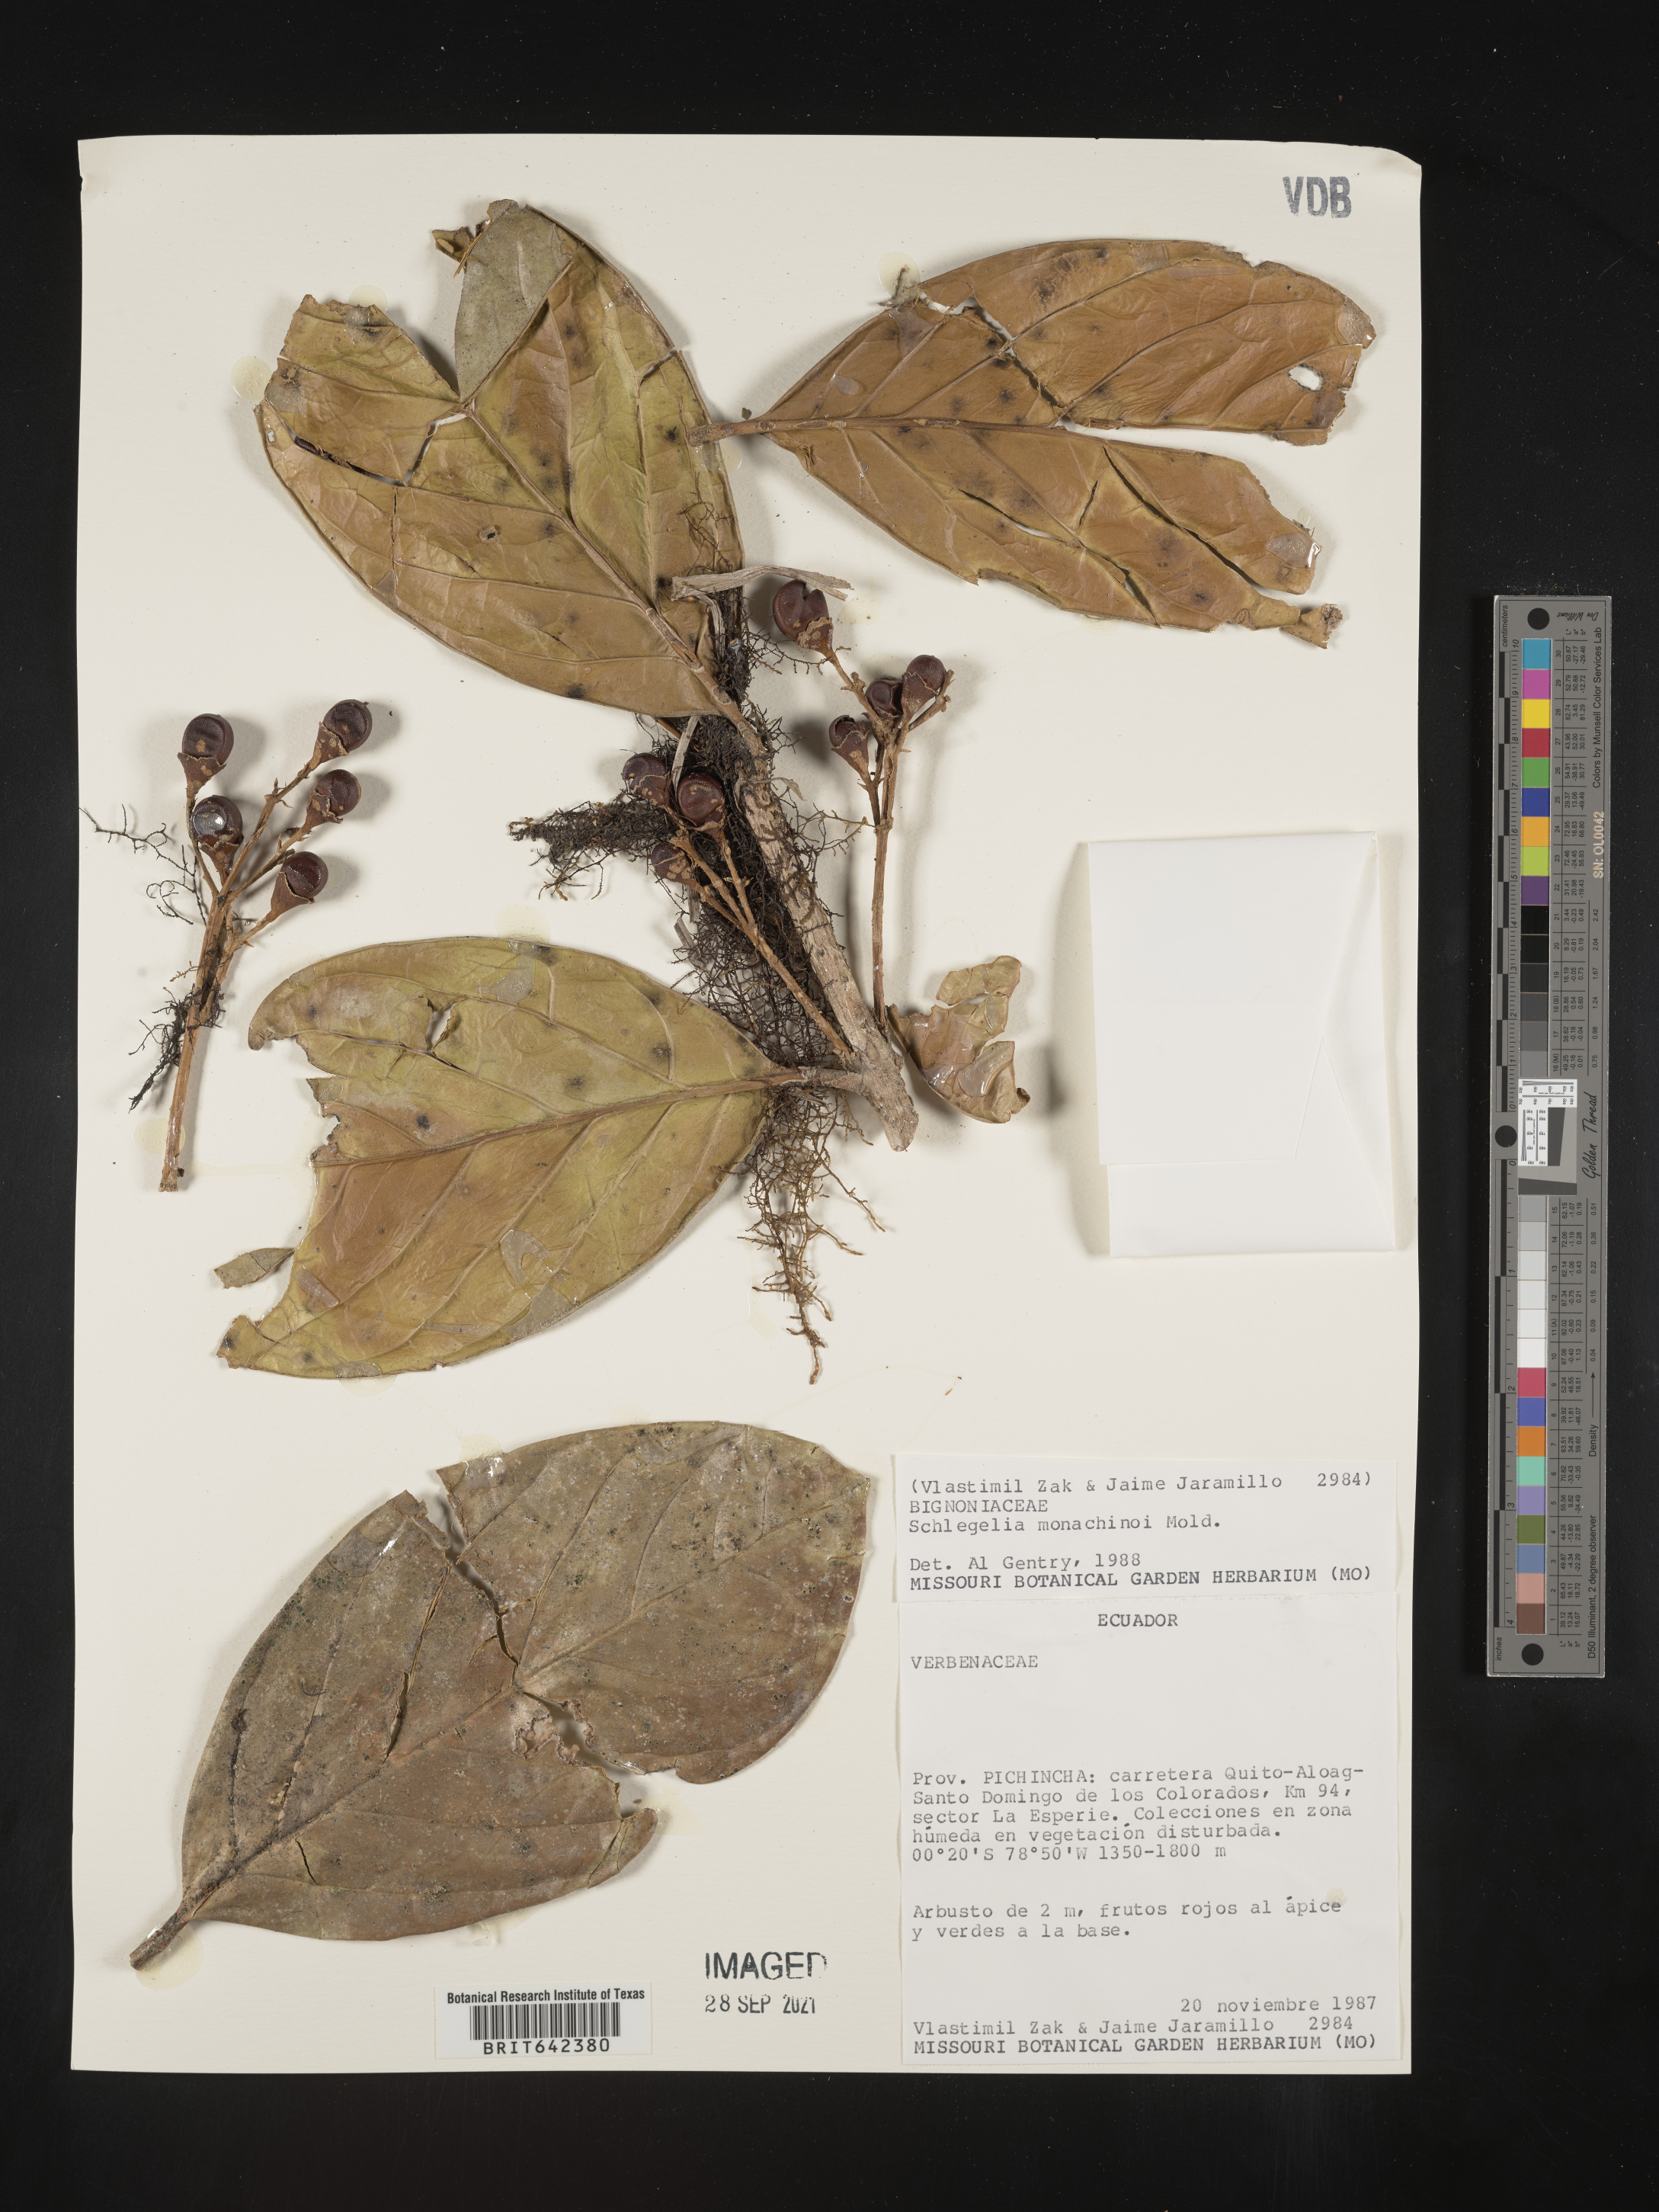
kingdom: Plantae
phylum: Tracheophyta
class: Magnoliopsida
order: Lamiales
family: Schlegeliaceae
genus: Schlegelia
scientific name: Schlegelia
